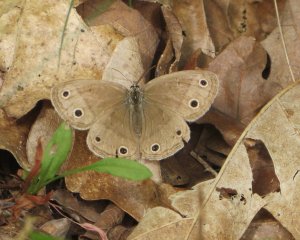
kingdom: Animalia
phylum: Arthropoda
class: Insecta
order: Lepidoptera
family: Nymphalidae
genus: Euptychia
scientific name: Euptychia cymela
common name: Little Wood Satyr
